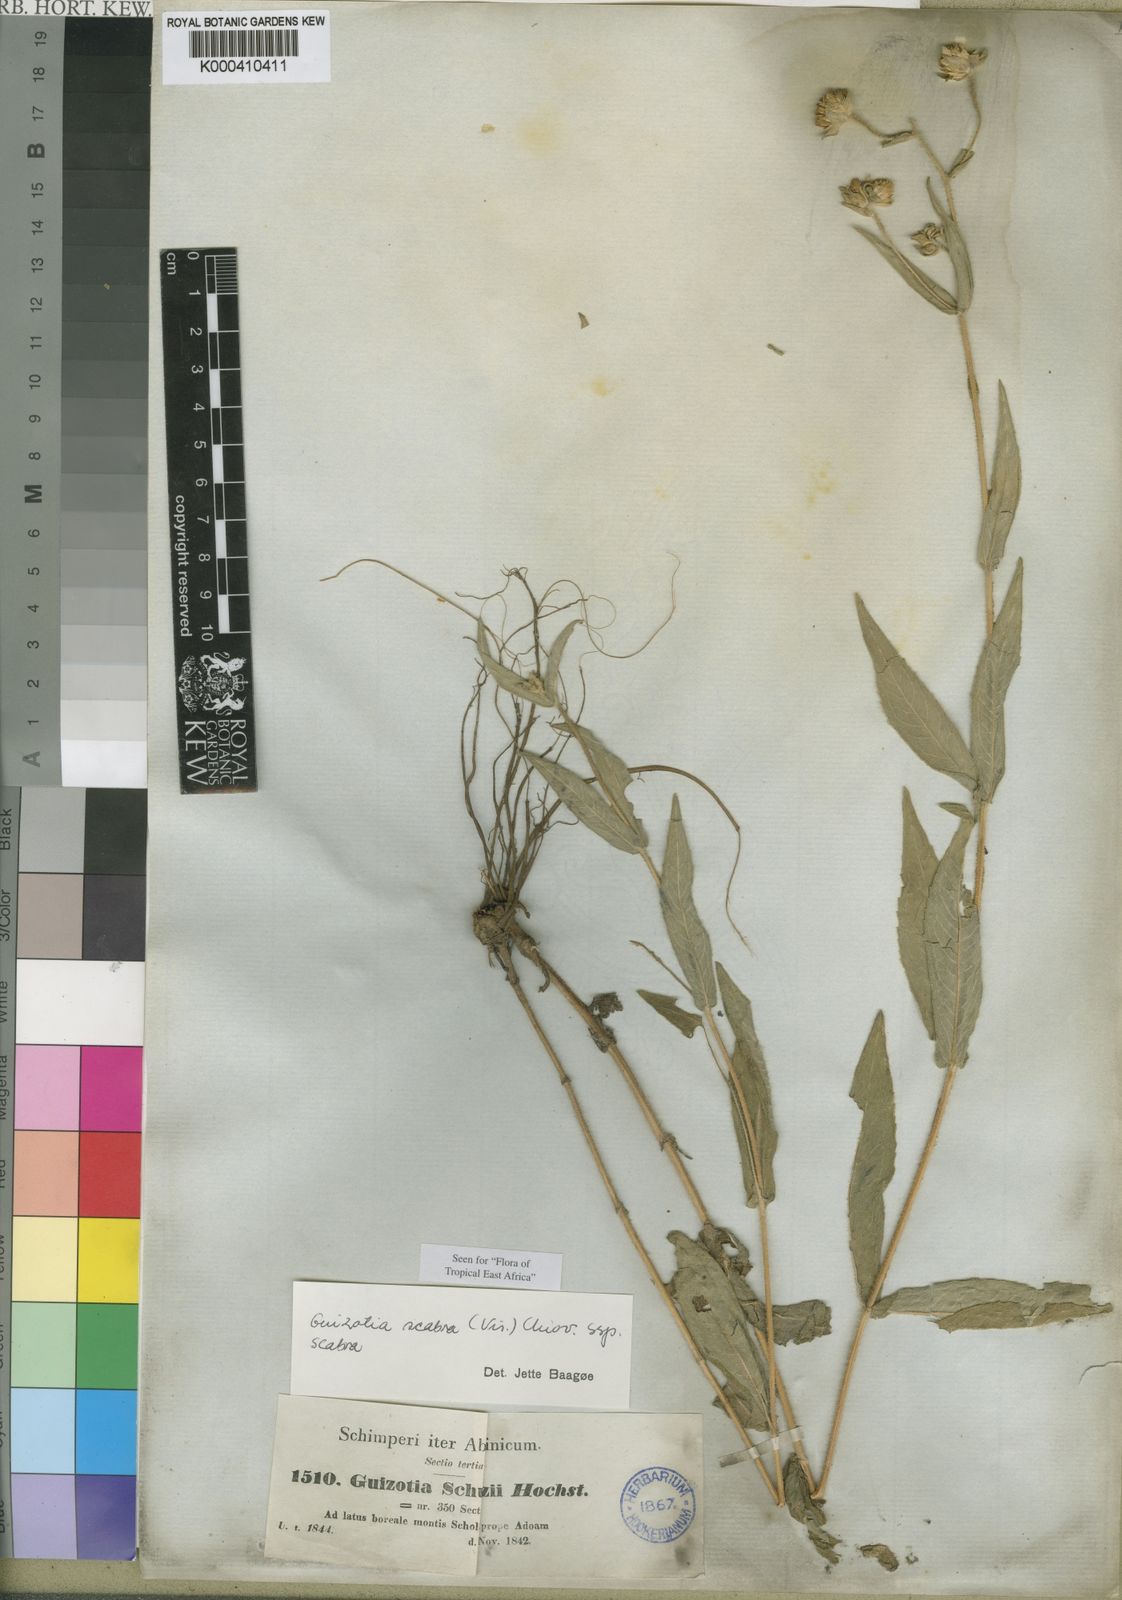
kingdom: Plantae
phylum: Tracheophyta
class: Magnoliopsida
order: Asterales
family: Asteraceae
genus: Guizotia
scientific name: Guizotia scabra
